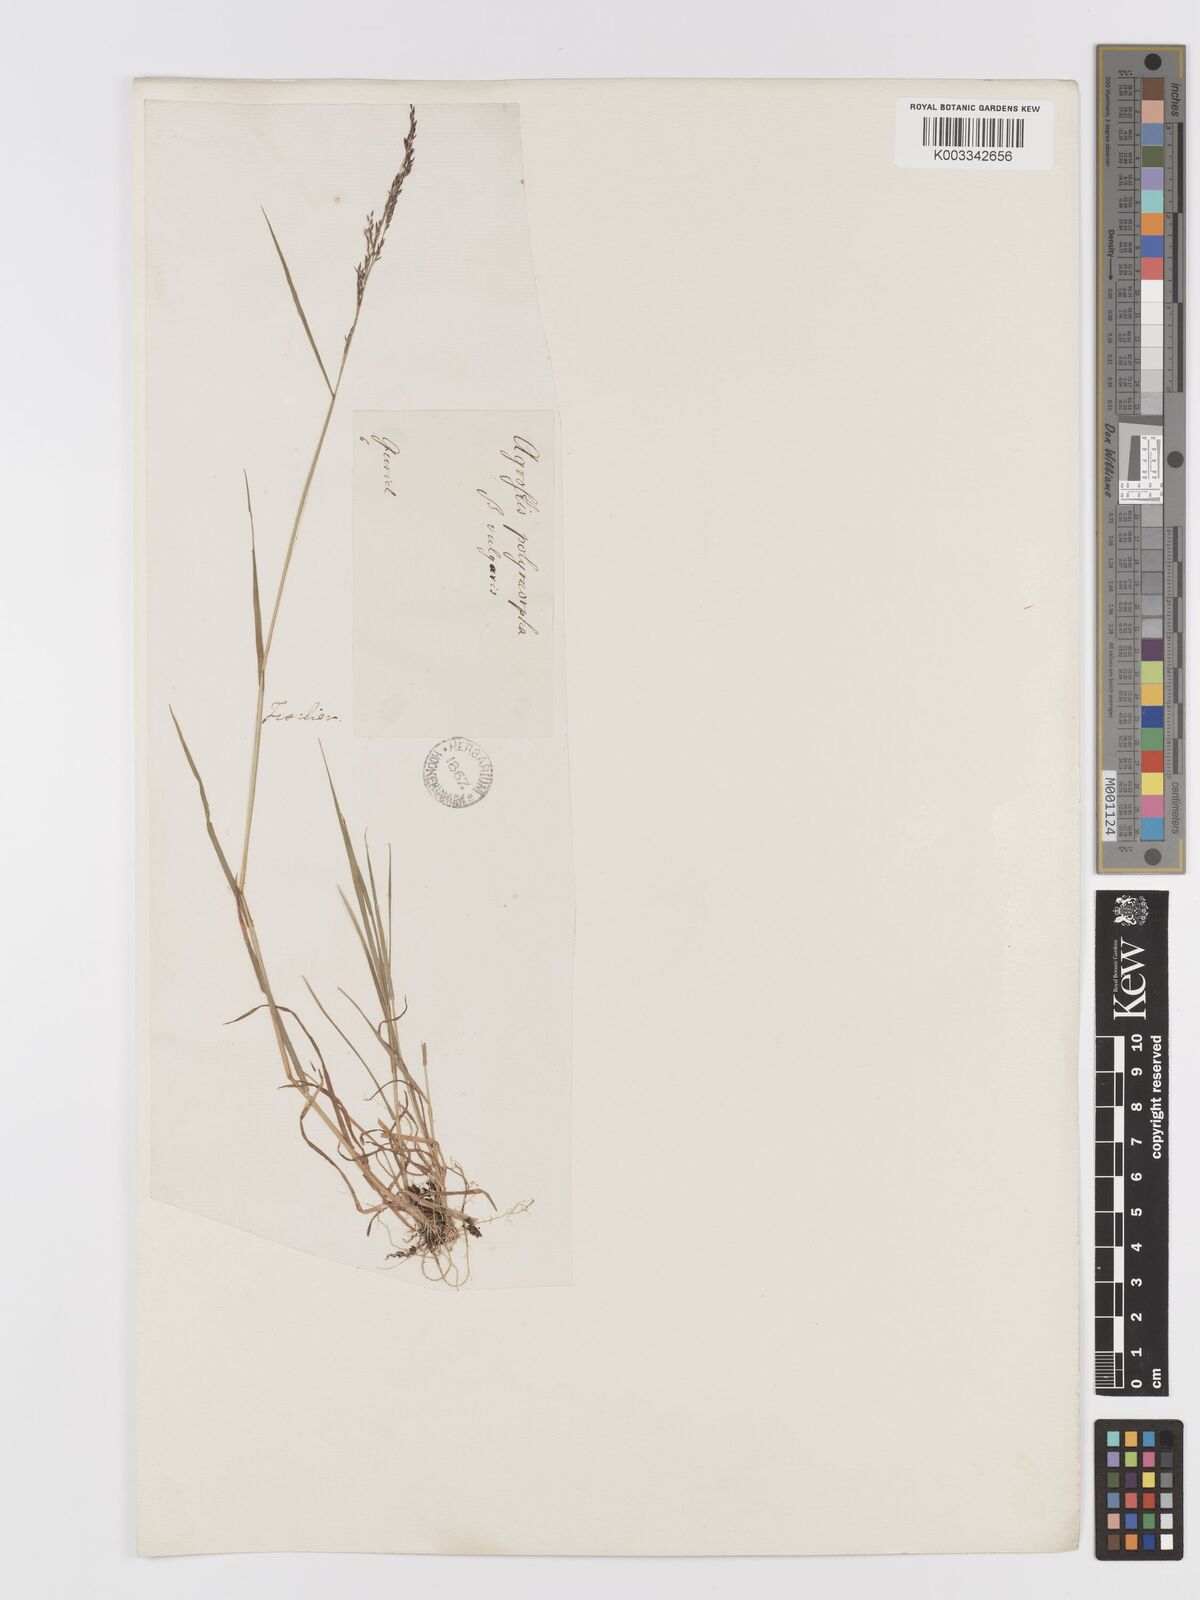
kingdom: Plantae
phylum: Tracheophyta
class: Liliopsida
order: Poales
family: Poaceae
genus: Agrostis
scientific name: Agrostis capillaris
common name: Colonial bentgrass
